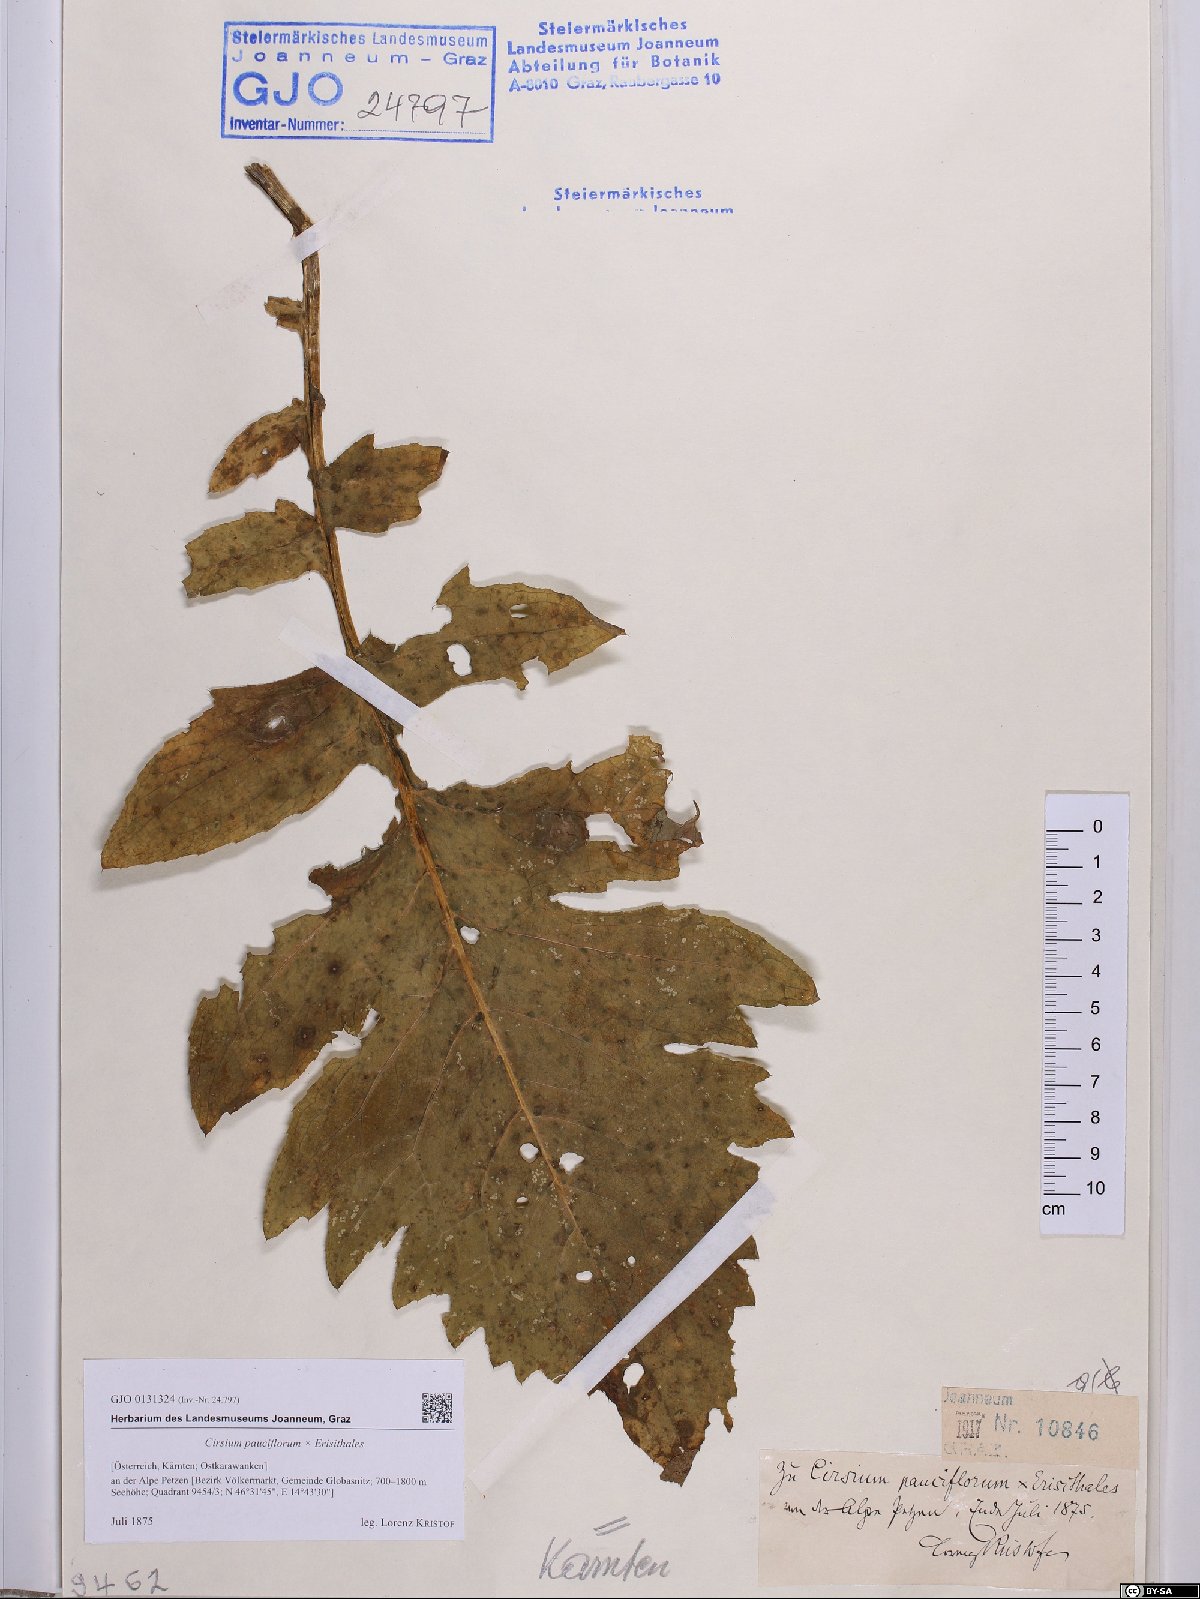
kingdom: Plantae
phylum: Tracheophyta
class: Magnoliopsida
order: Asterales
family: Asteraceae
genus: Cirsium
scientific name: Cirsium scopolii
